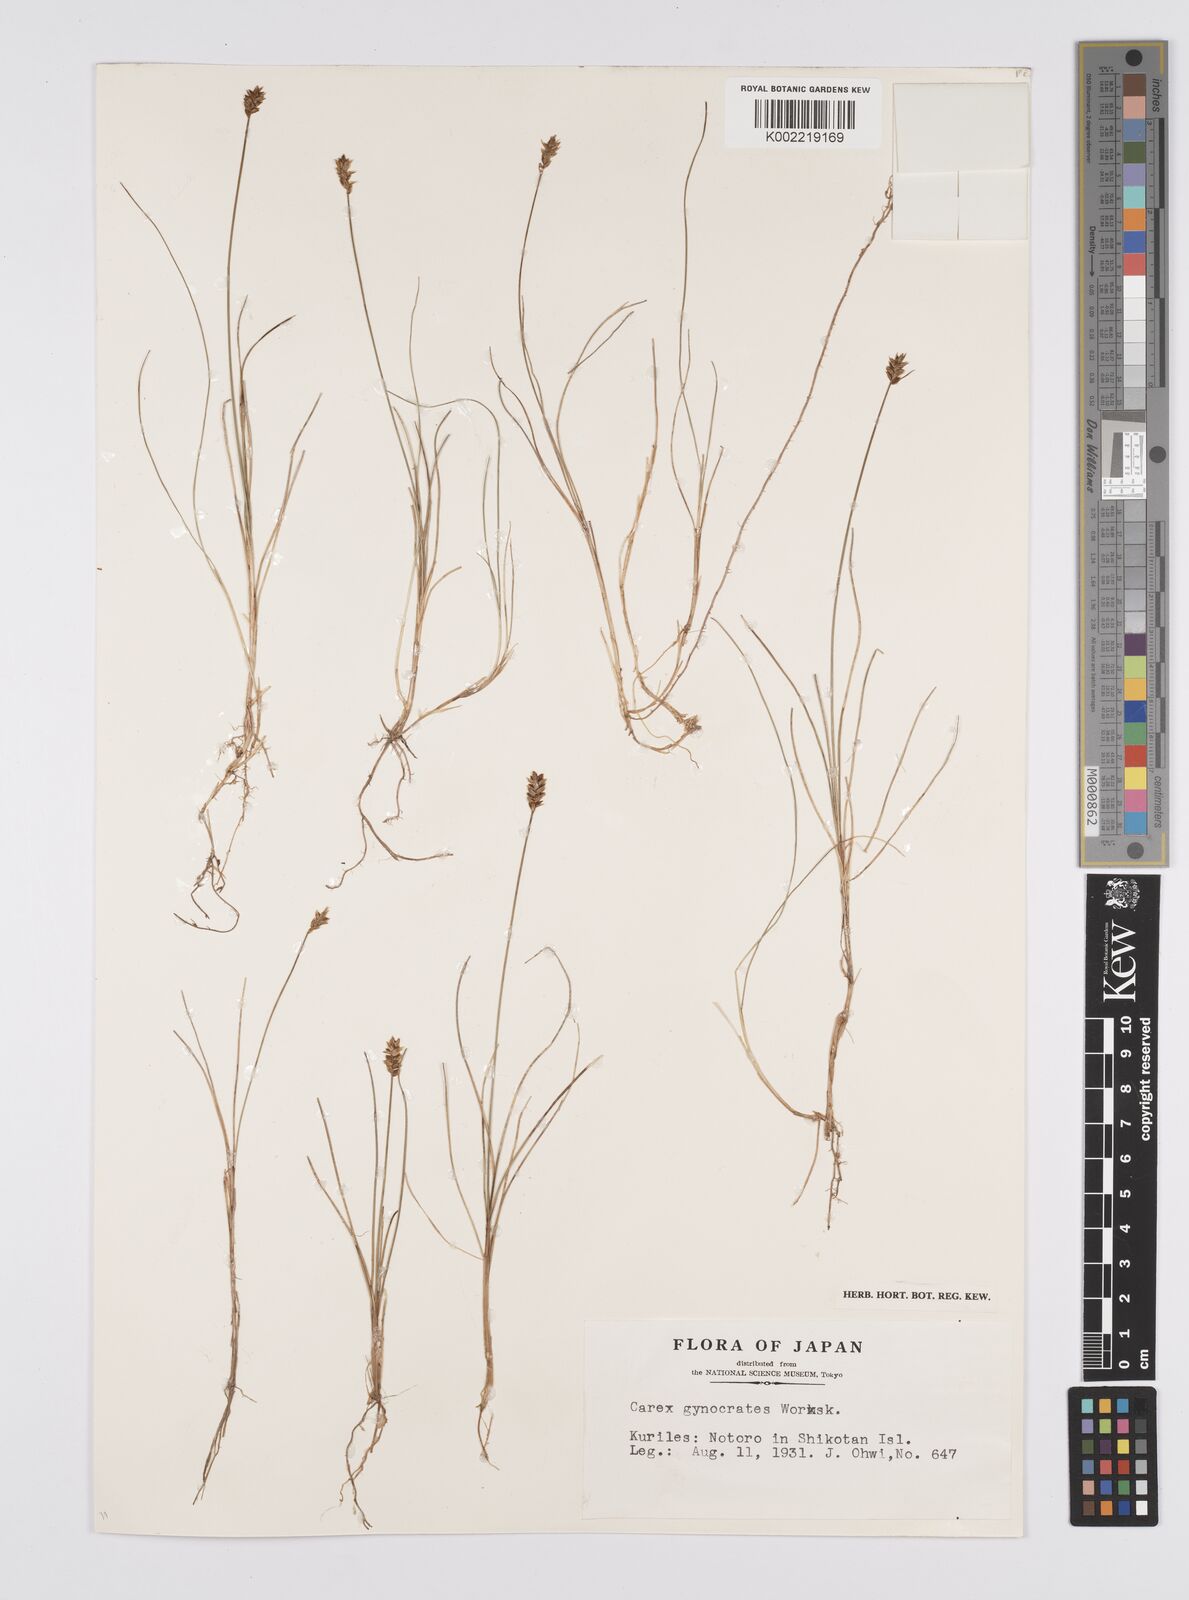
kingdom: Plantae
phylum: Tracheophyta
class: Liliopsida
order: Poales
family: Cyperaceae
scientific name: Cyperaceae
